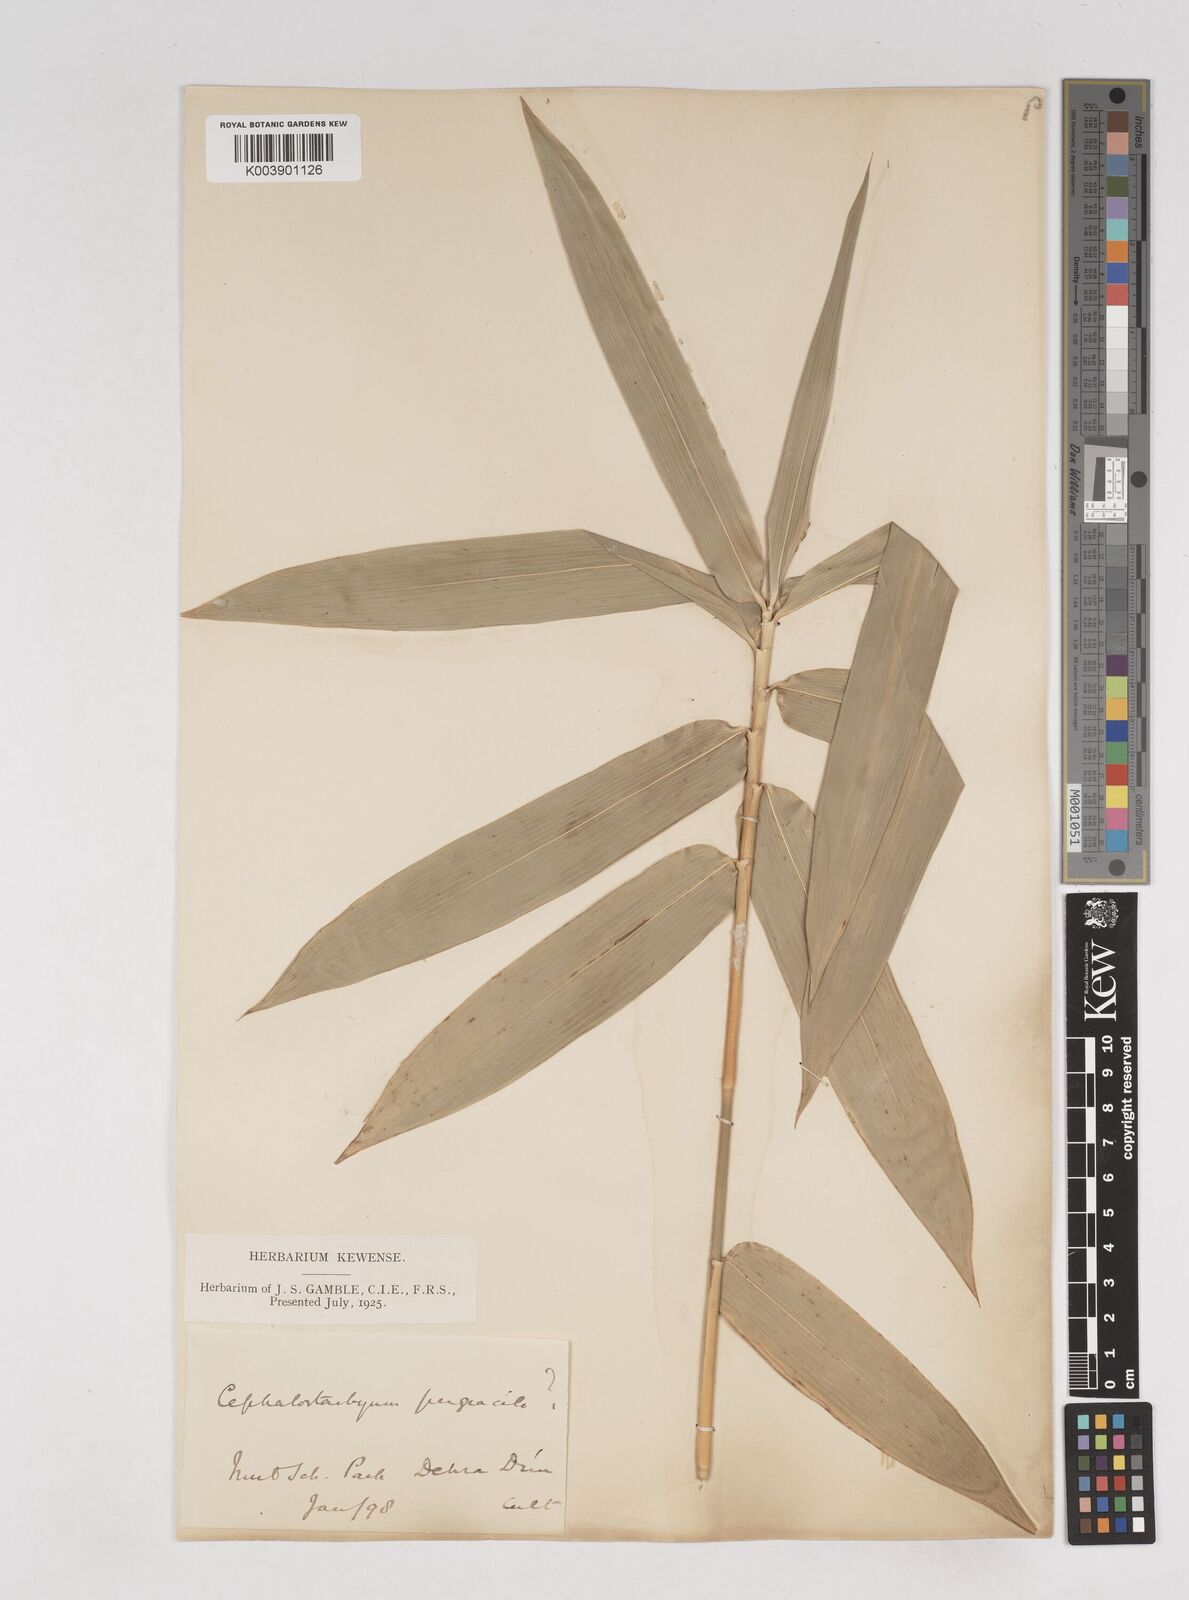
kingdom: Plantae
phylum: Tracheophyta
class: Liliopsida
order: Poales
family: Poaceae
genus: Schizostachyum
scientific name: Schizostachyum pergracile
